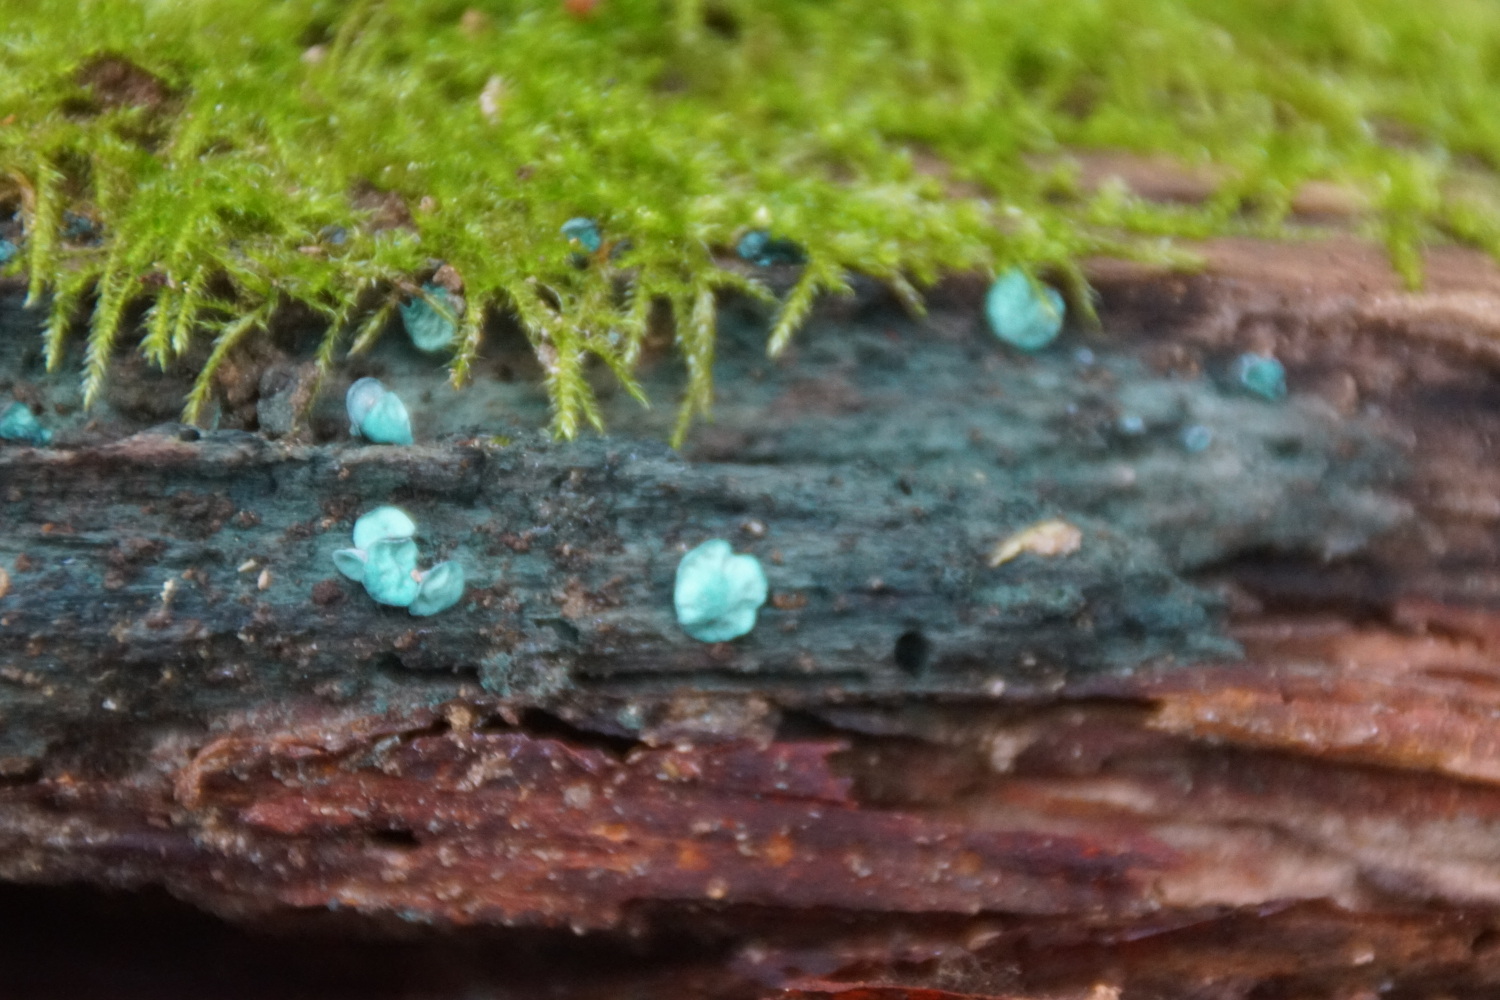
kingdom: Fungi
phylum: Ascomycota
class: Leotiomycetes
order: Helotiales
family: Chlorociboriaceae
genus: Chlorociboria
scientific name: Chlorociboria aeruginascens
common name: almindelig grønskive
